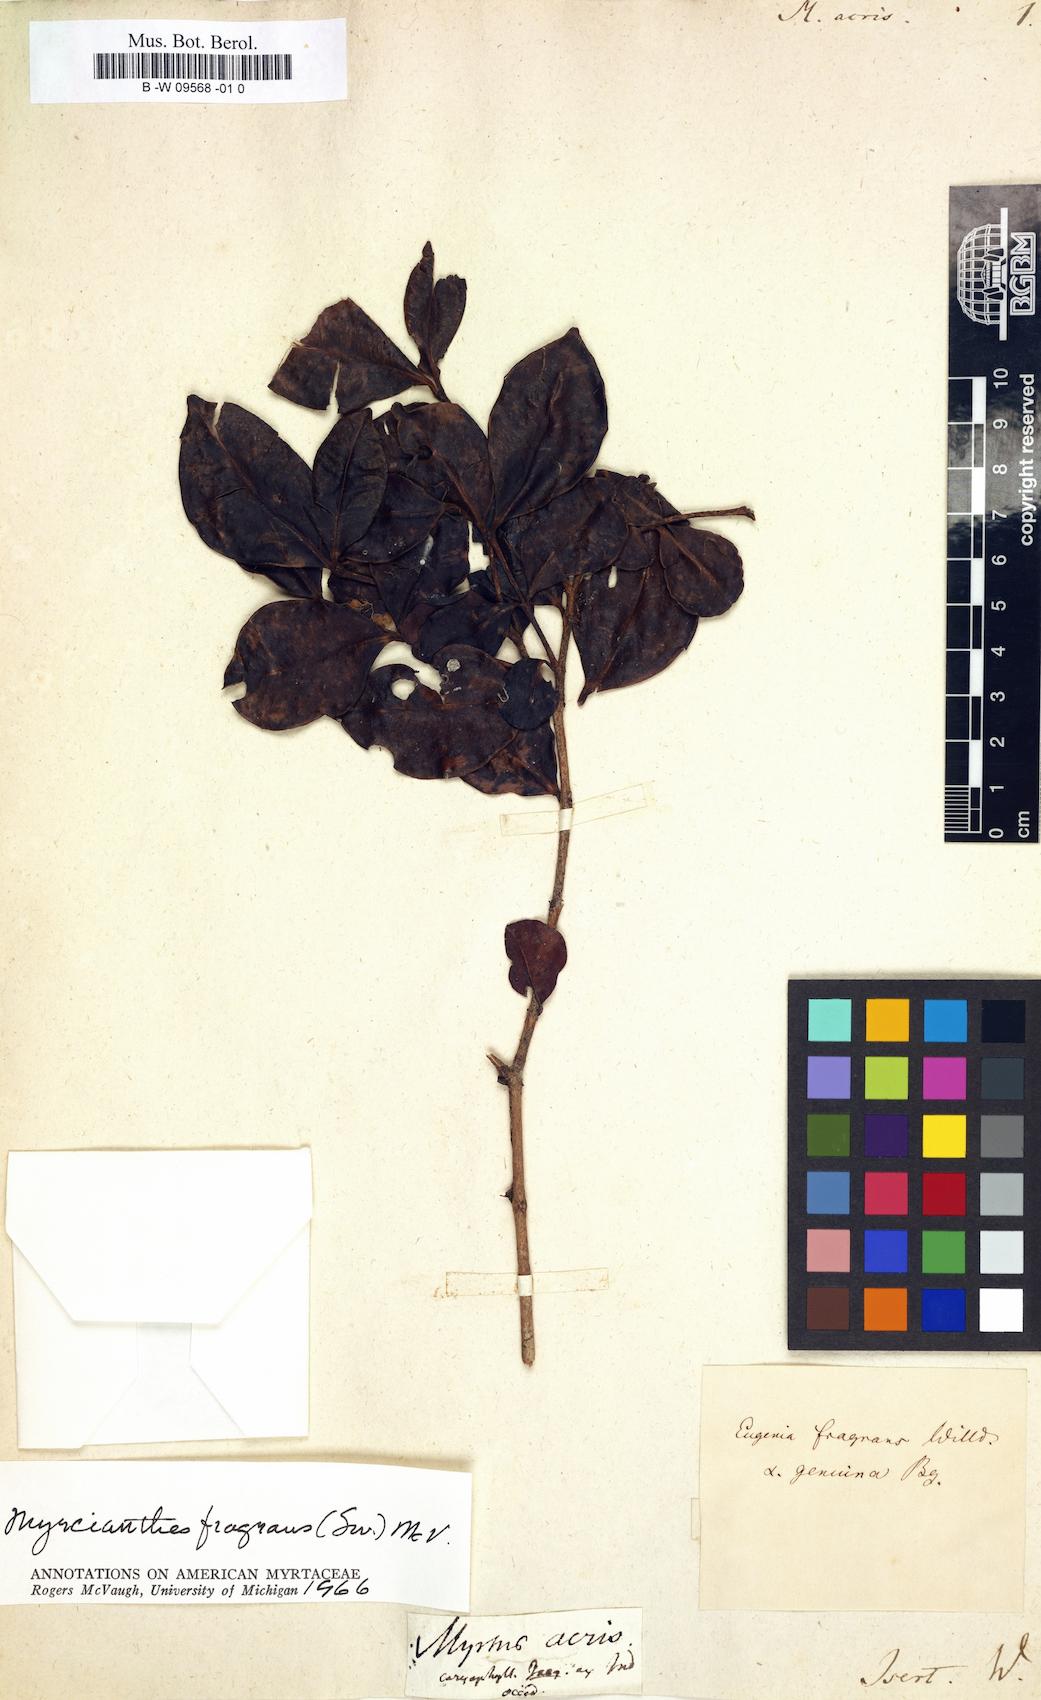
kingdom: Plantae
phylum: Tracheophyta
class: Magnoliopsida
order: Myrtales
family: Myrtaceae
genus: Pimenta
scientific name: Pimenta racemosa
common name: Bay rum tree
